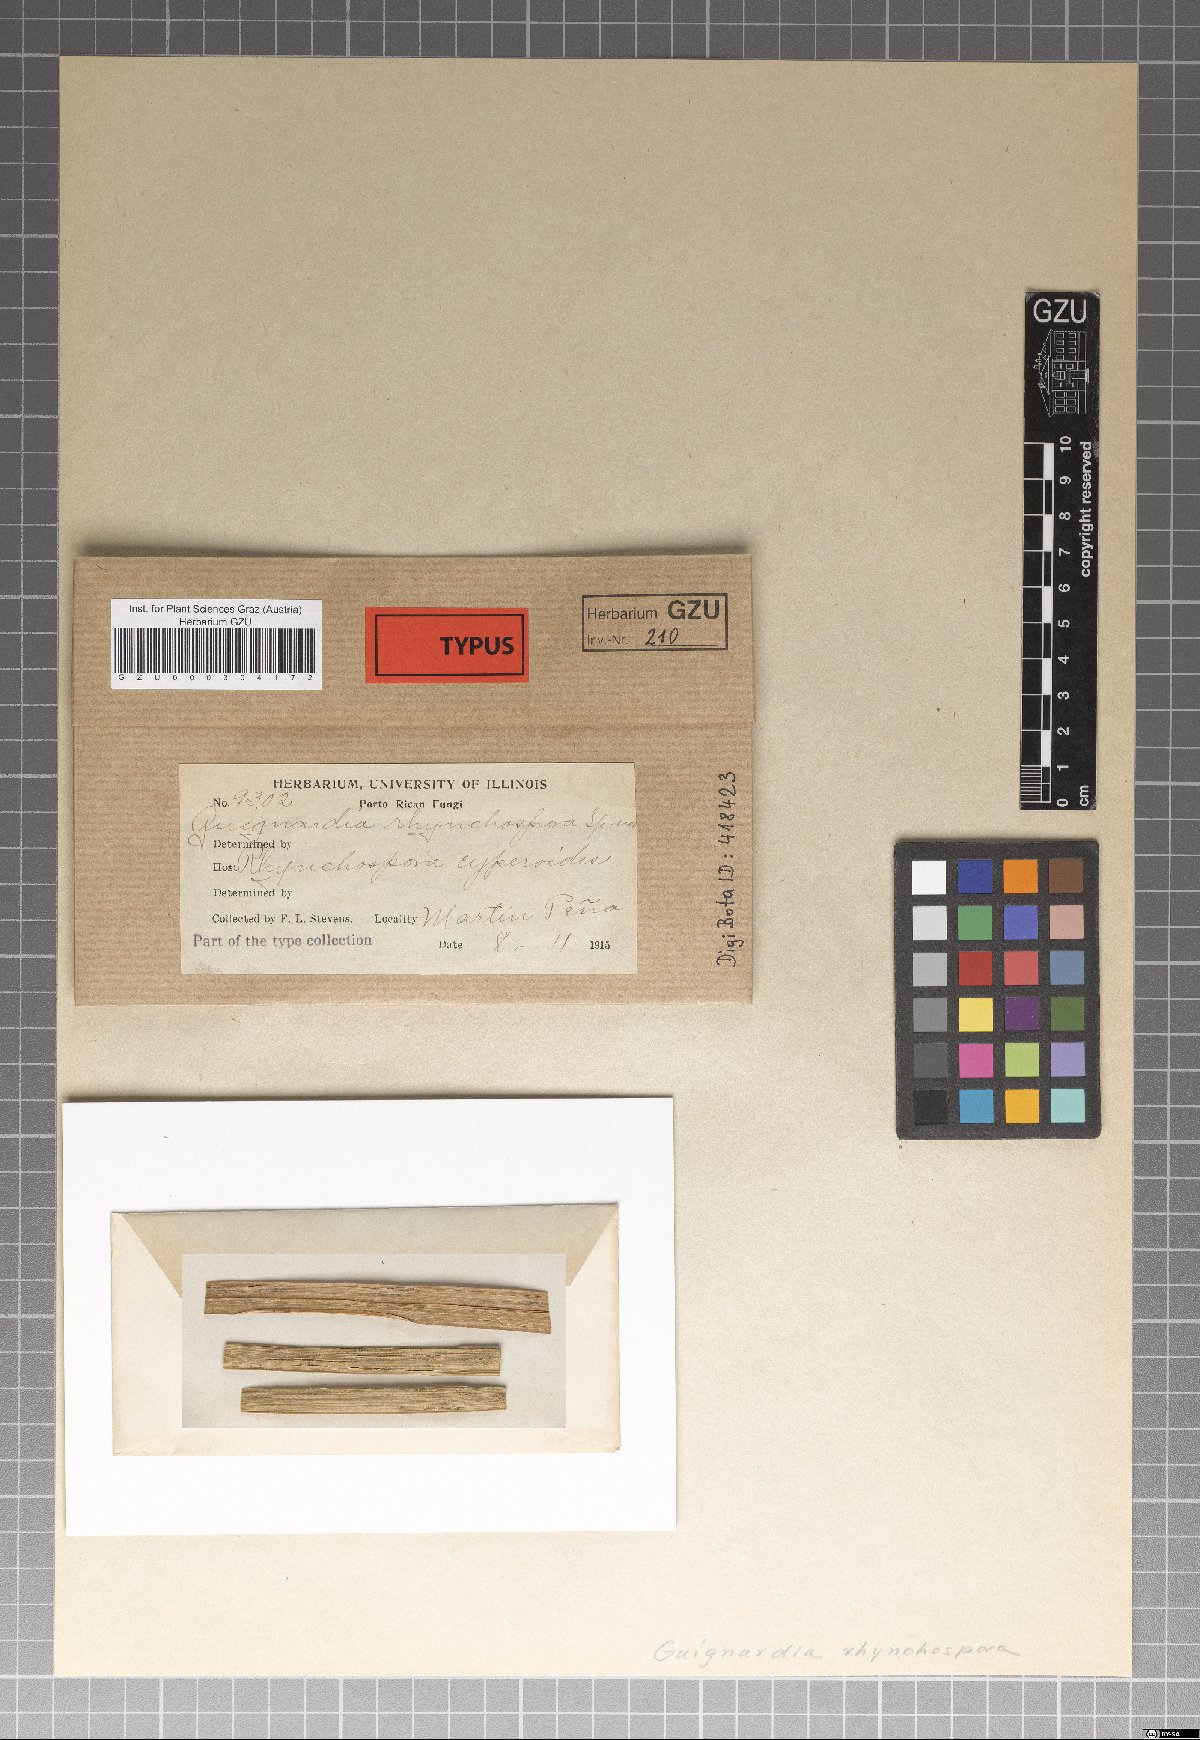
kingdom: Fungi
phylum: Ascomycota
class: Dothideomycetes
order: Botryosphaeriales
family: Phyllostictaceae
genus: Guignardia
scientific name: Guignardia rhynchosporae
